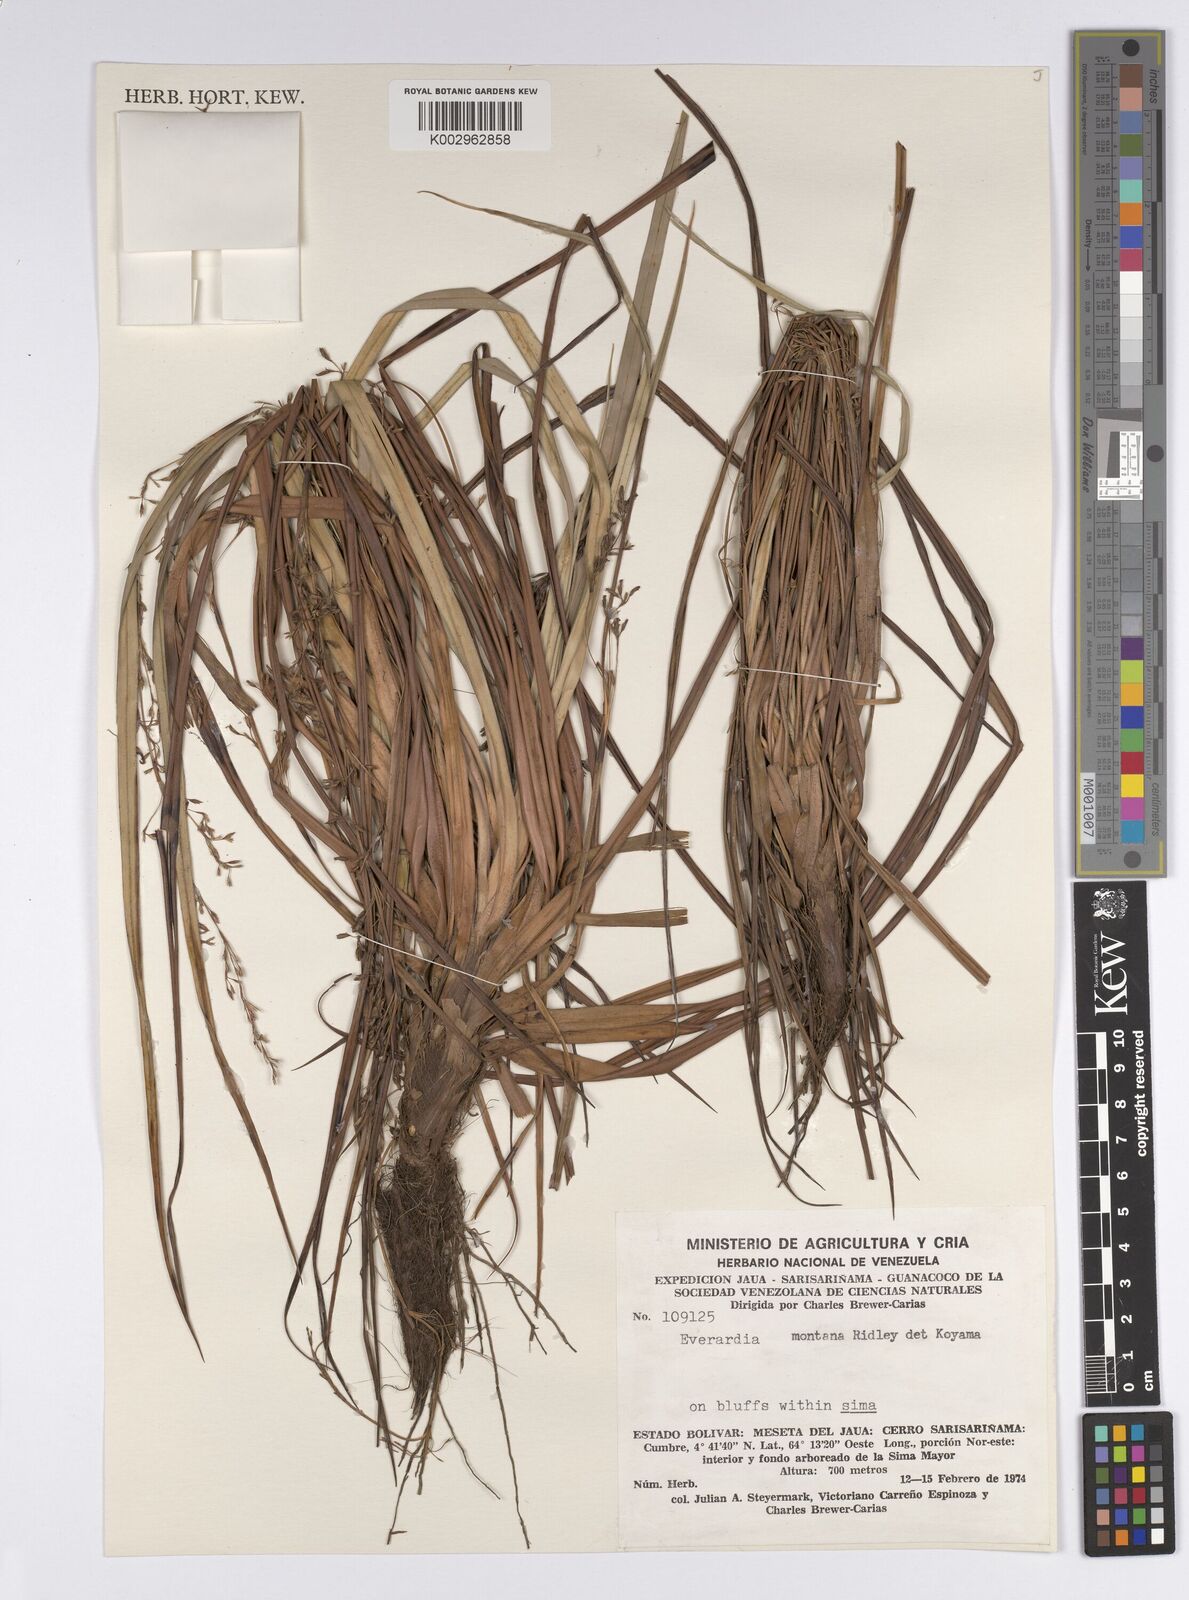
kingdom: Plantae
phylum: Tracheophyta
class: Liliopsida
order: Poales
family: Cyperaceae
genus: Cephalocarpus
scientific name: Cephalocarpus montanus
